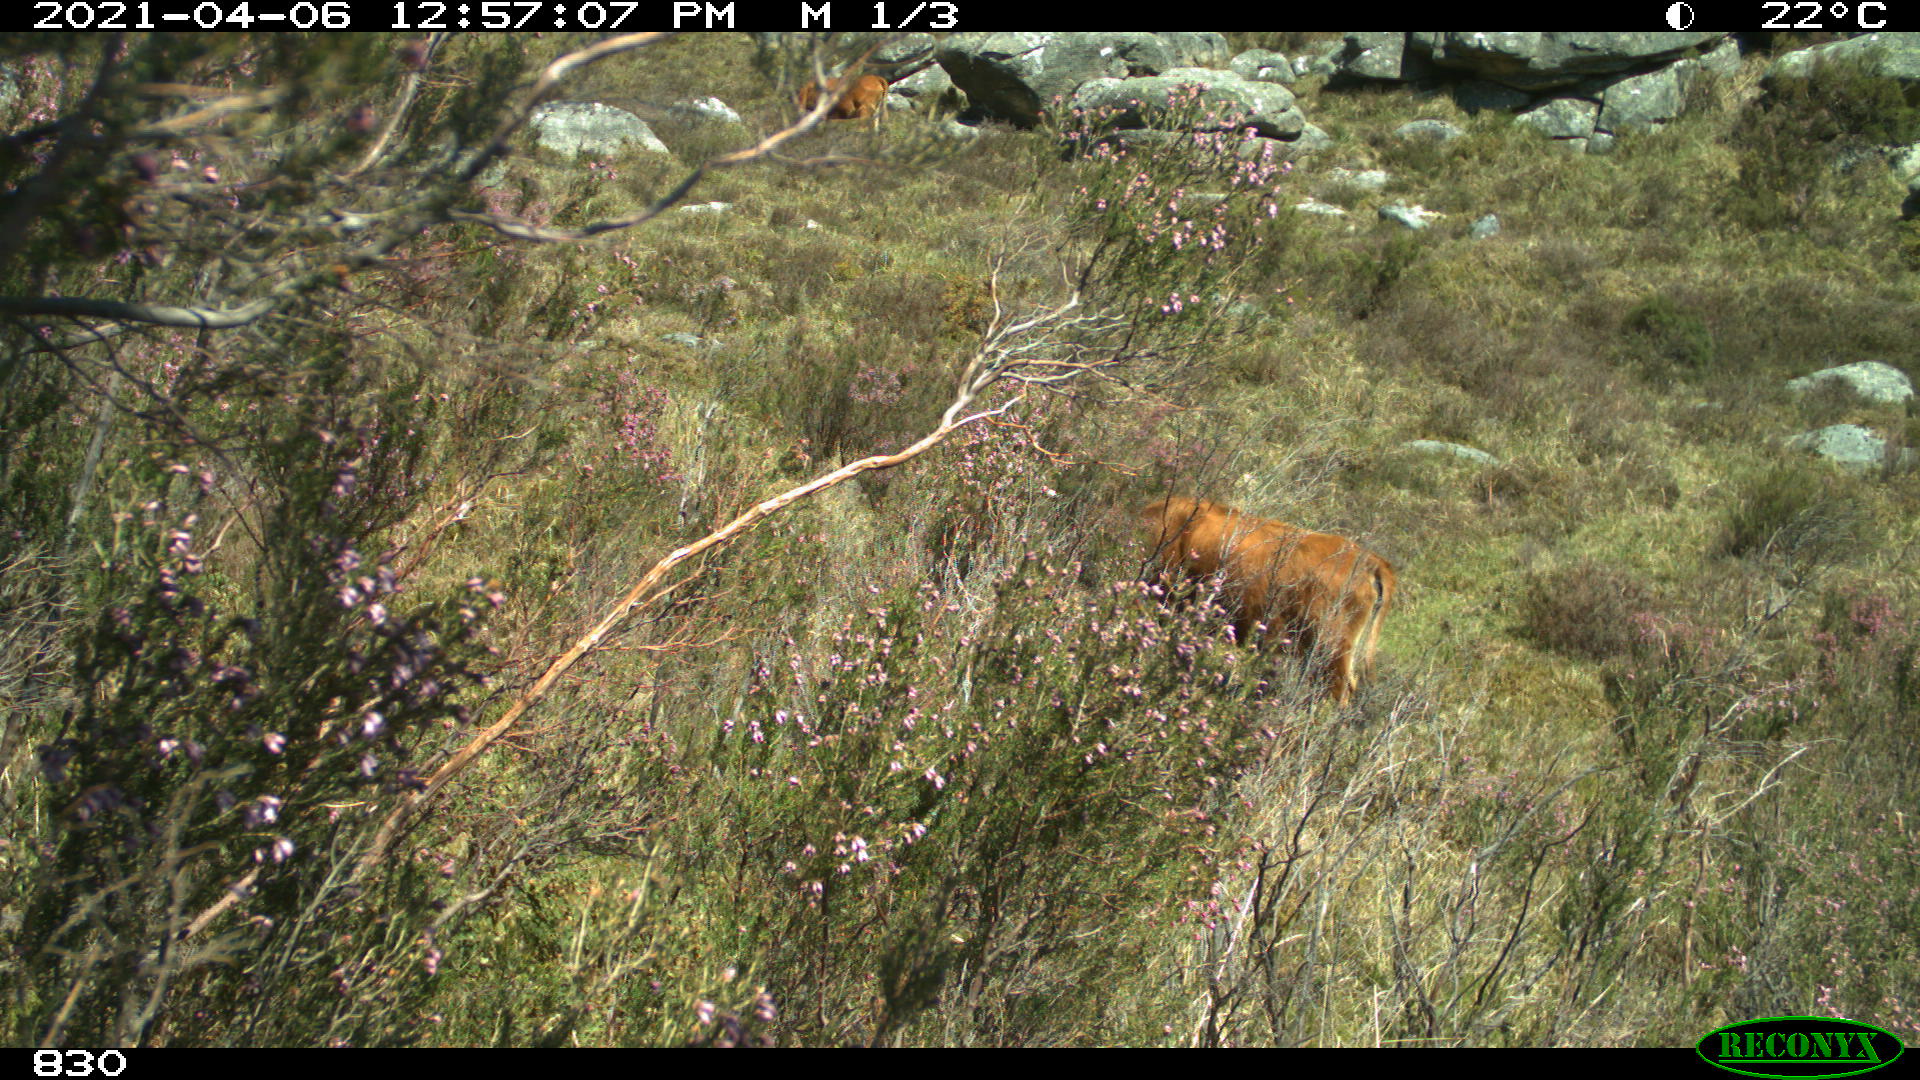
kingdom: Animalia
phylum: Chordata
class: Mammalia
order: Artiodactyla
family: Bovidae
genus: Bos
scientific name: Bos taurus
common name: Domesticated cattle
